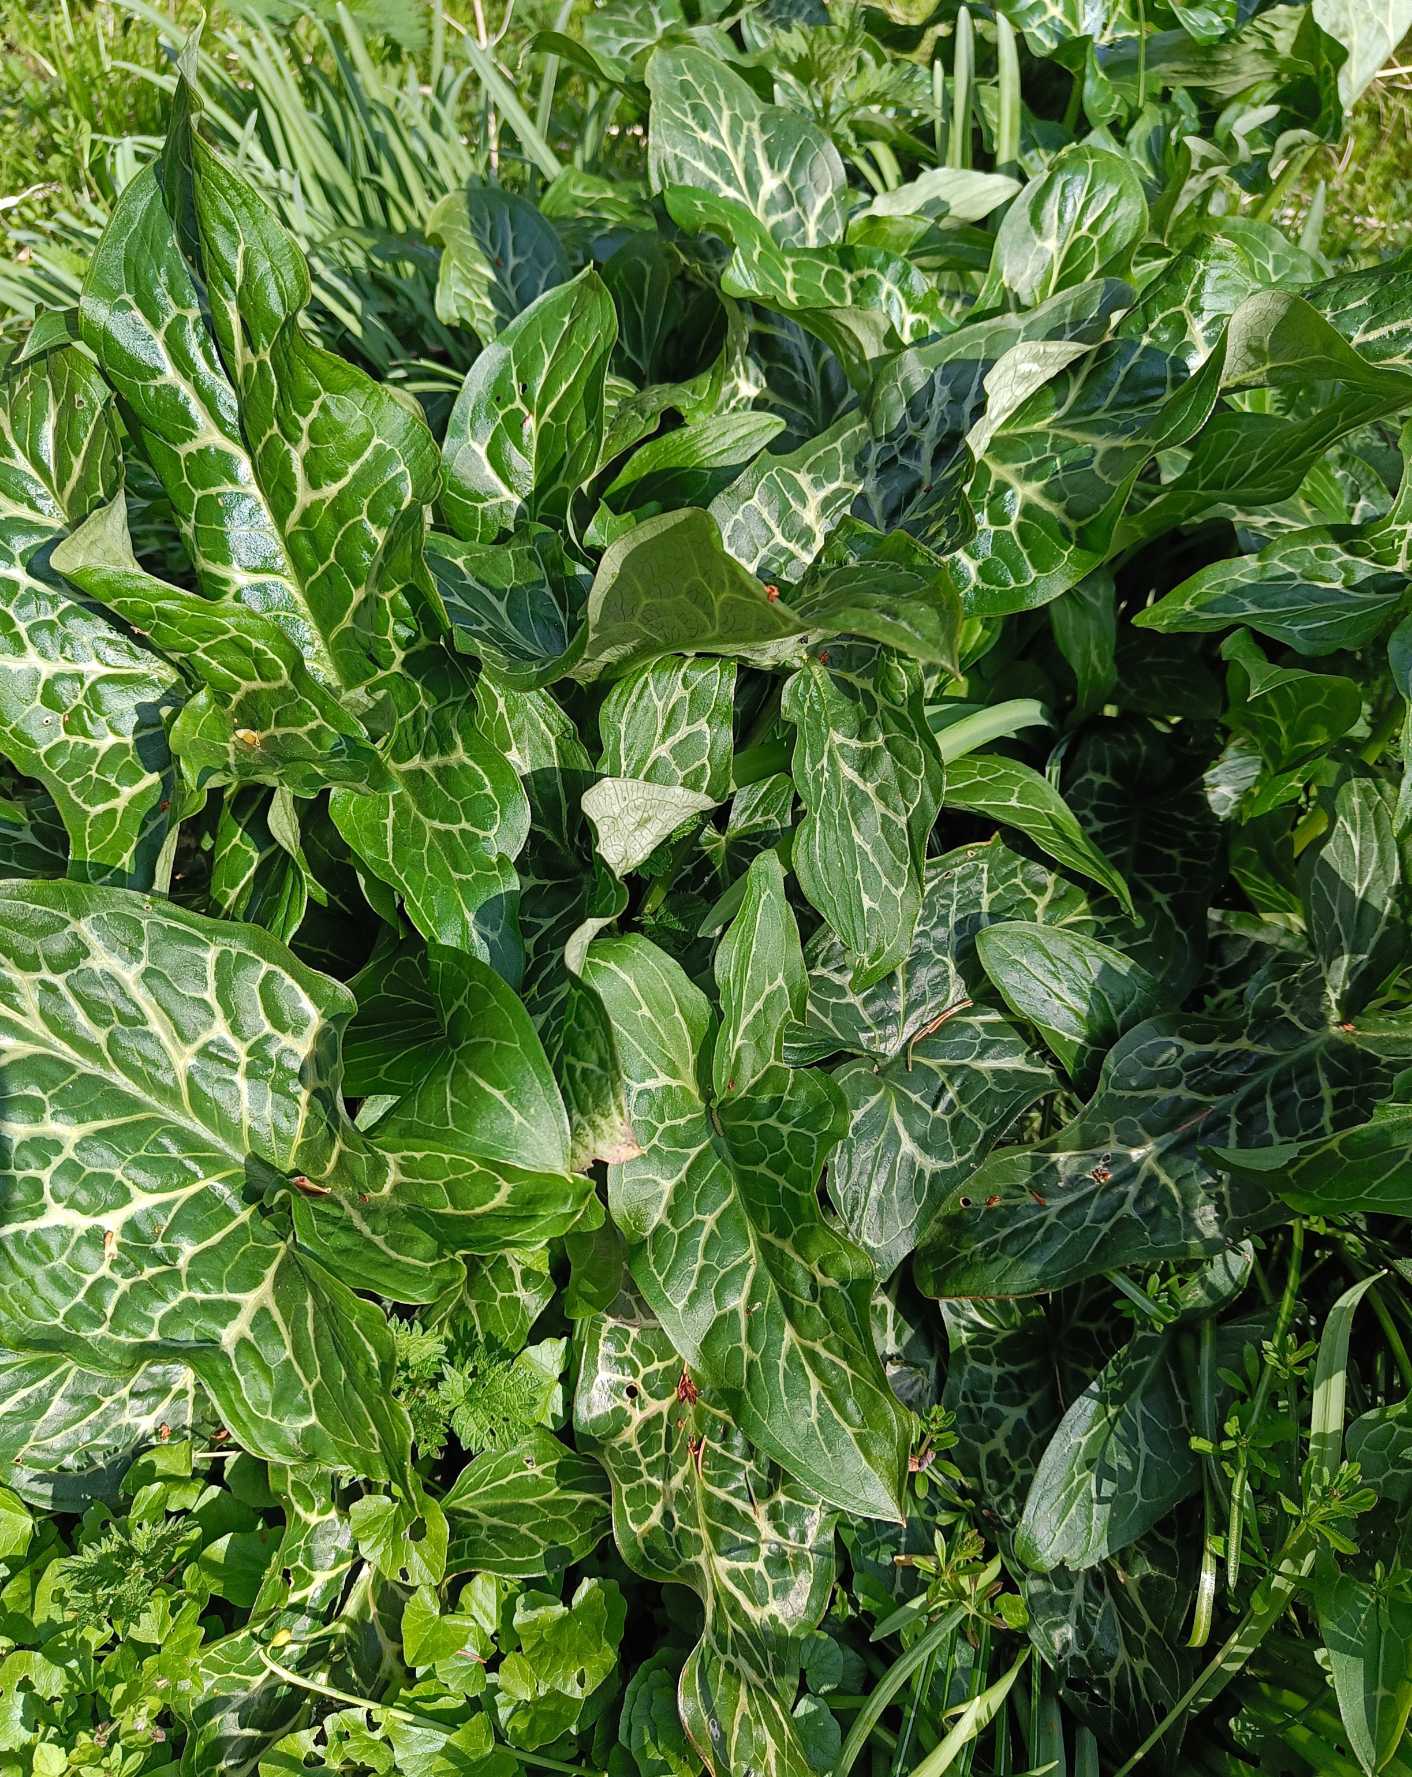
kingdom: Plantae
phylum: Tracheophyta
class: Liliopsida
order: Asparagales
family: Asparagaceae
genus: Polygonatum
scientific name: Polygonatum
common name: Hybrid-konval
